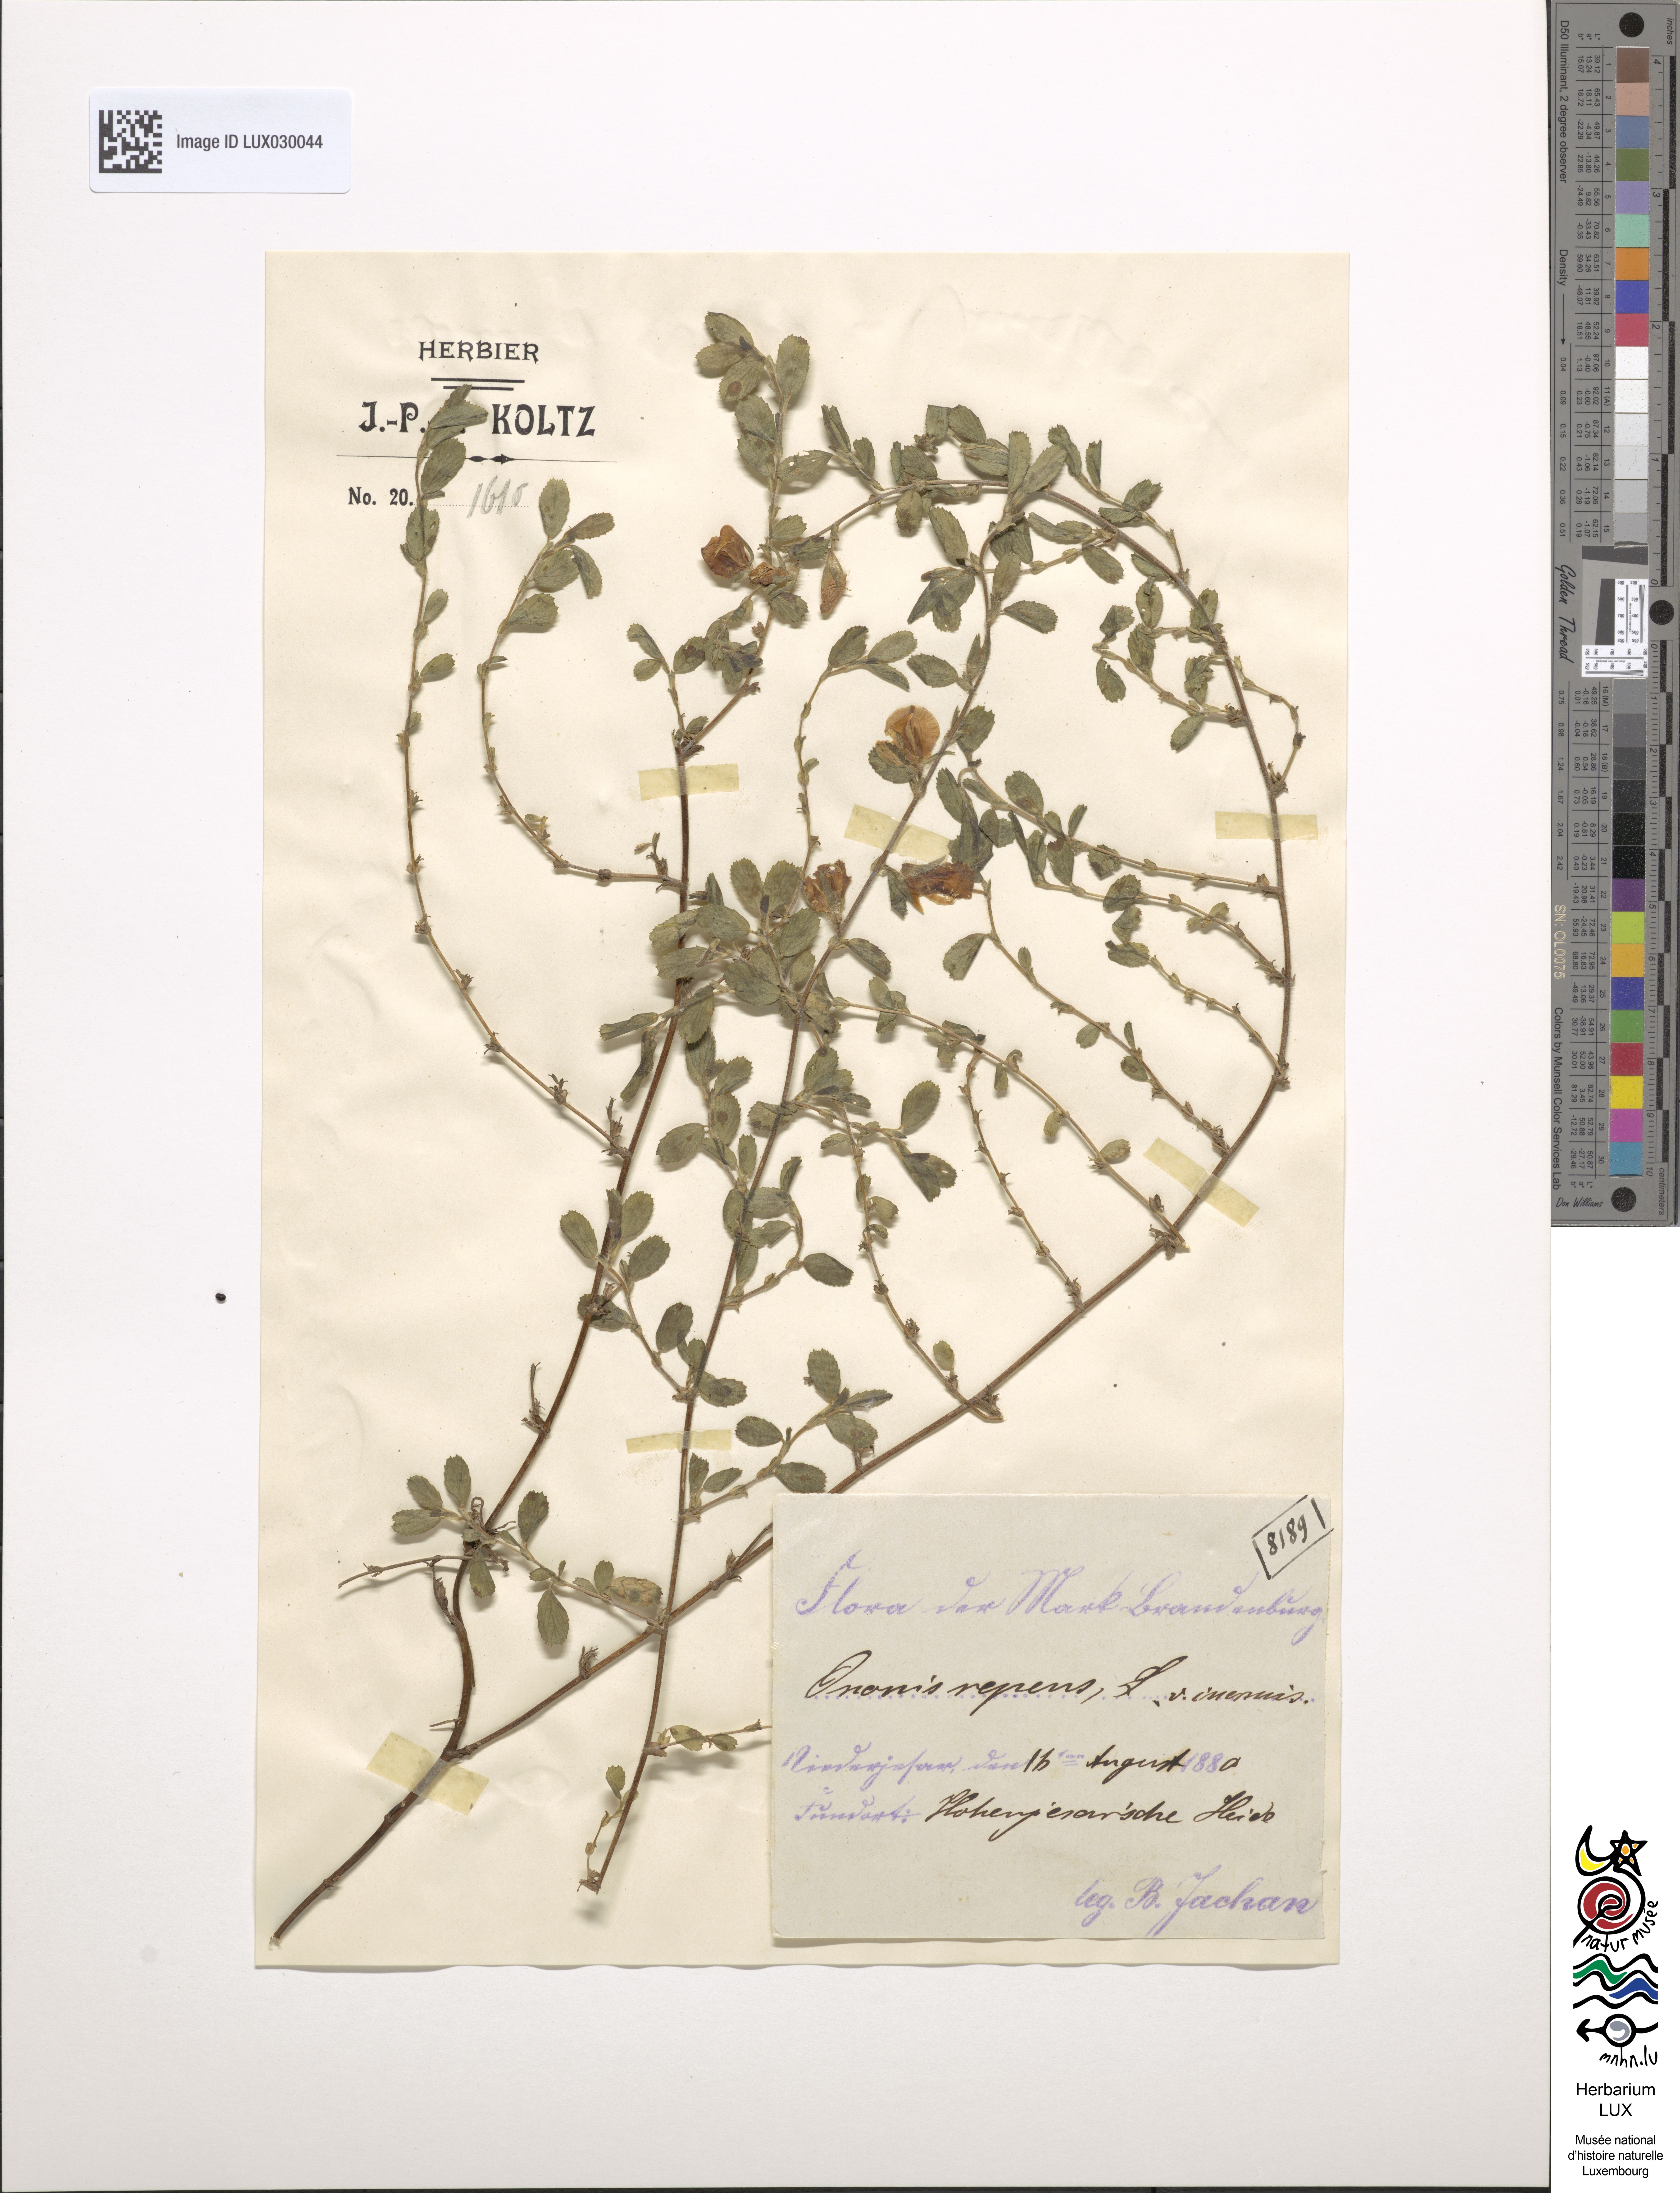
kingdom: Plantae
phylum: Tracheophyta
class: Magnoliopsida
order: Fabales
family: Fabaceae
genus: Ononis
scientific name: Ononis spinosa
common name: Spiny restharrow
